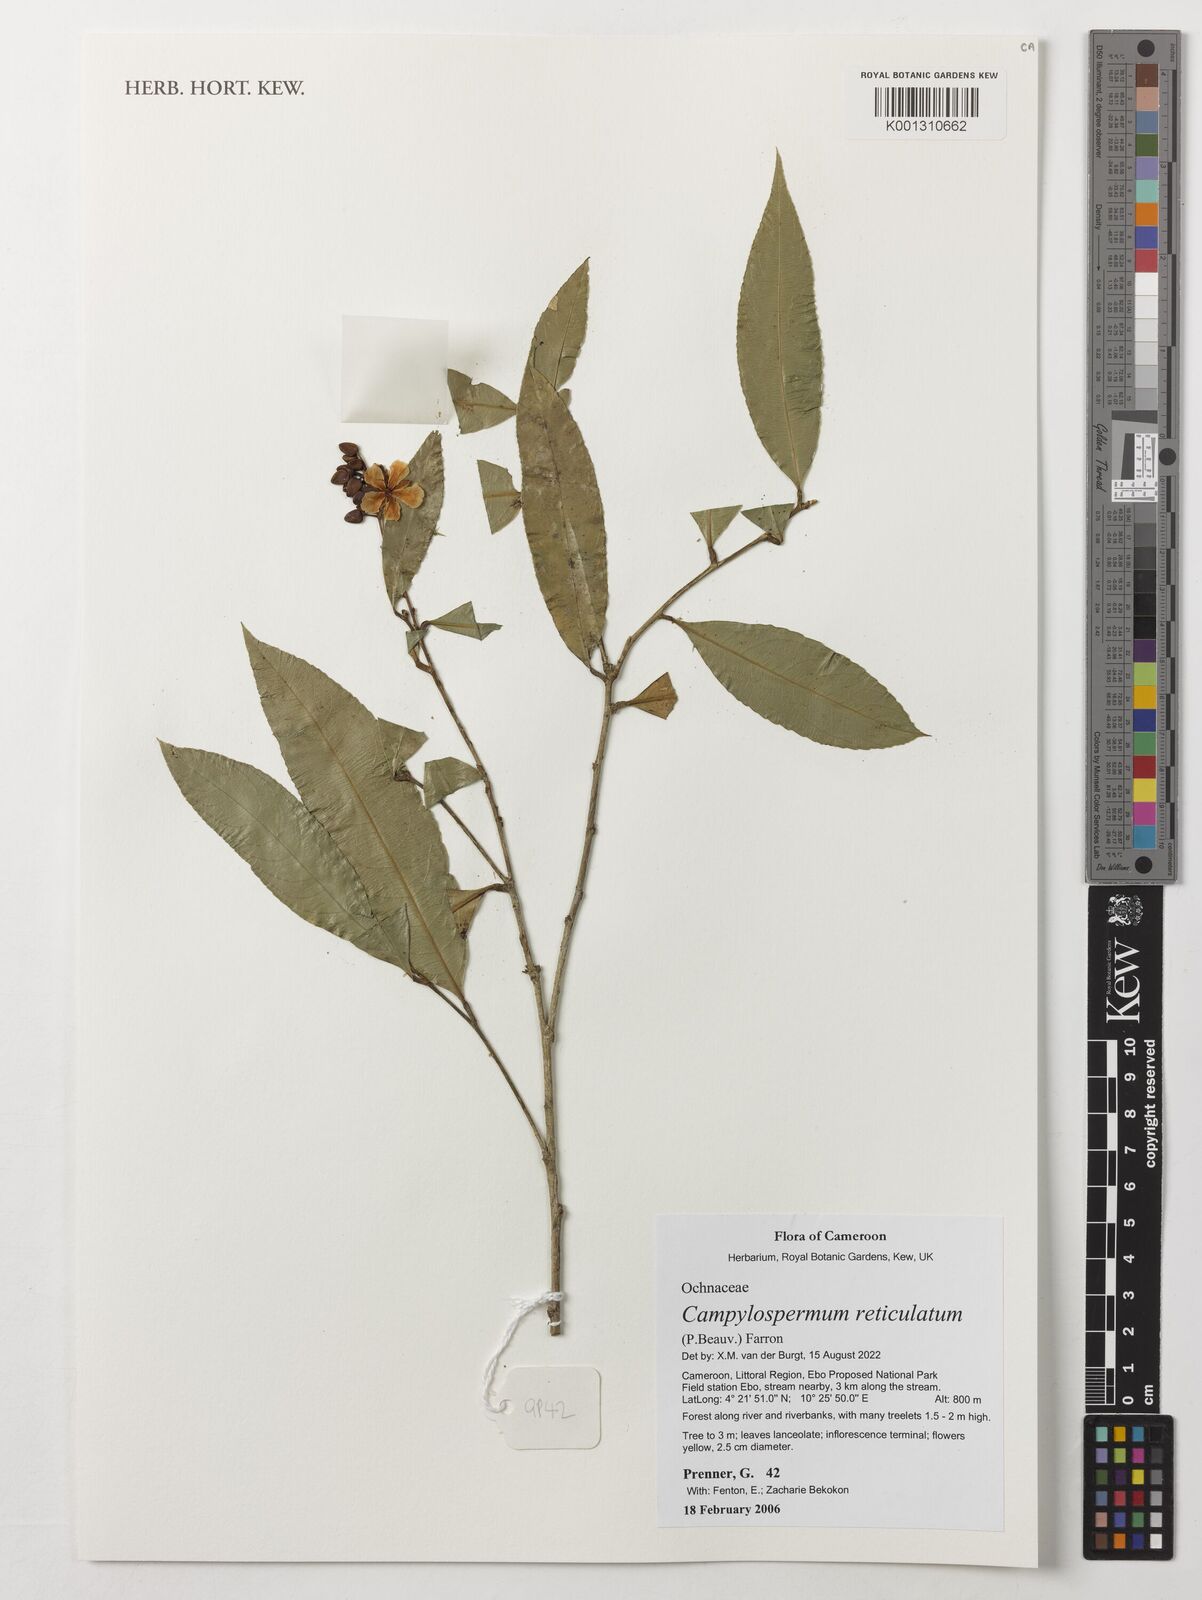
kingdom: Plantae
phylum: Tracheophyta
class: Magnoliopsida
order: Malpighiales
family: Ochnaceae
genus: Campylospermum
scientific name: Campylospermum reticulatum
